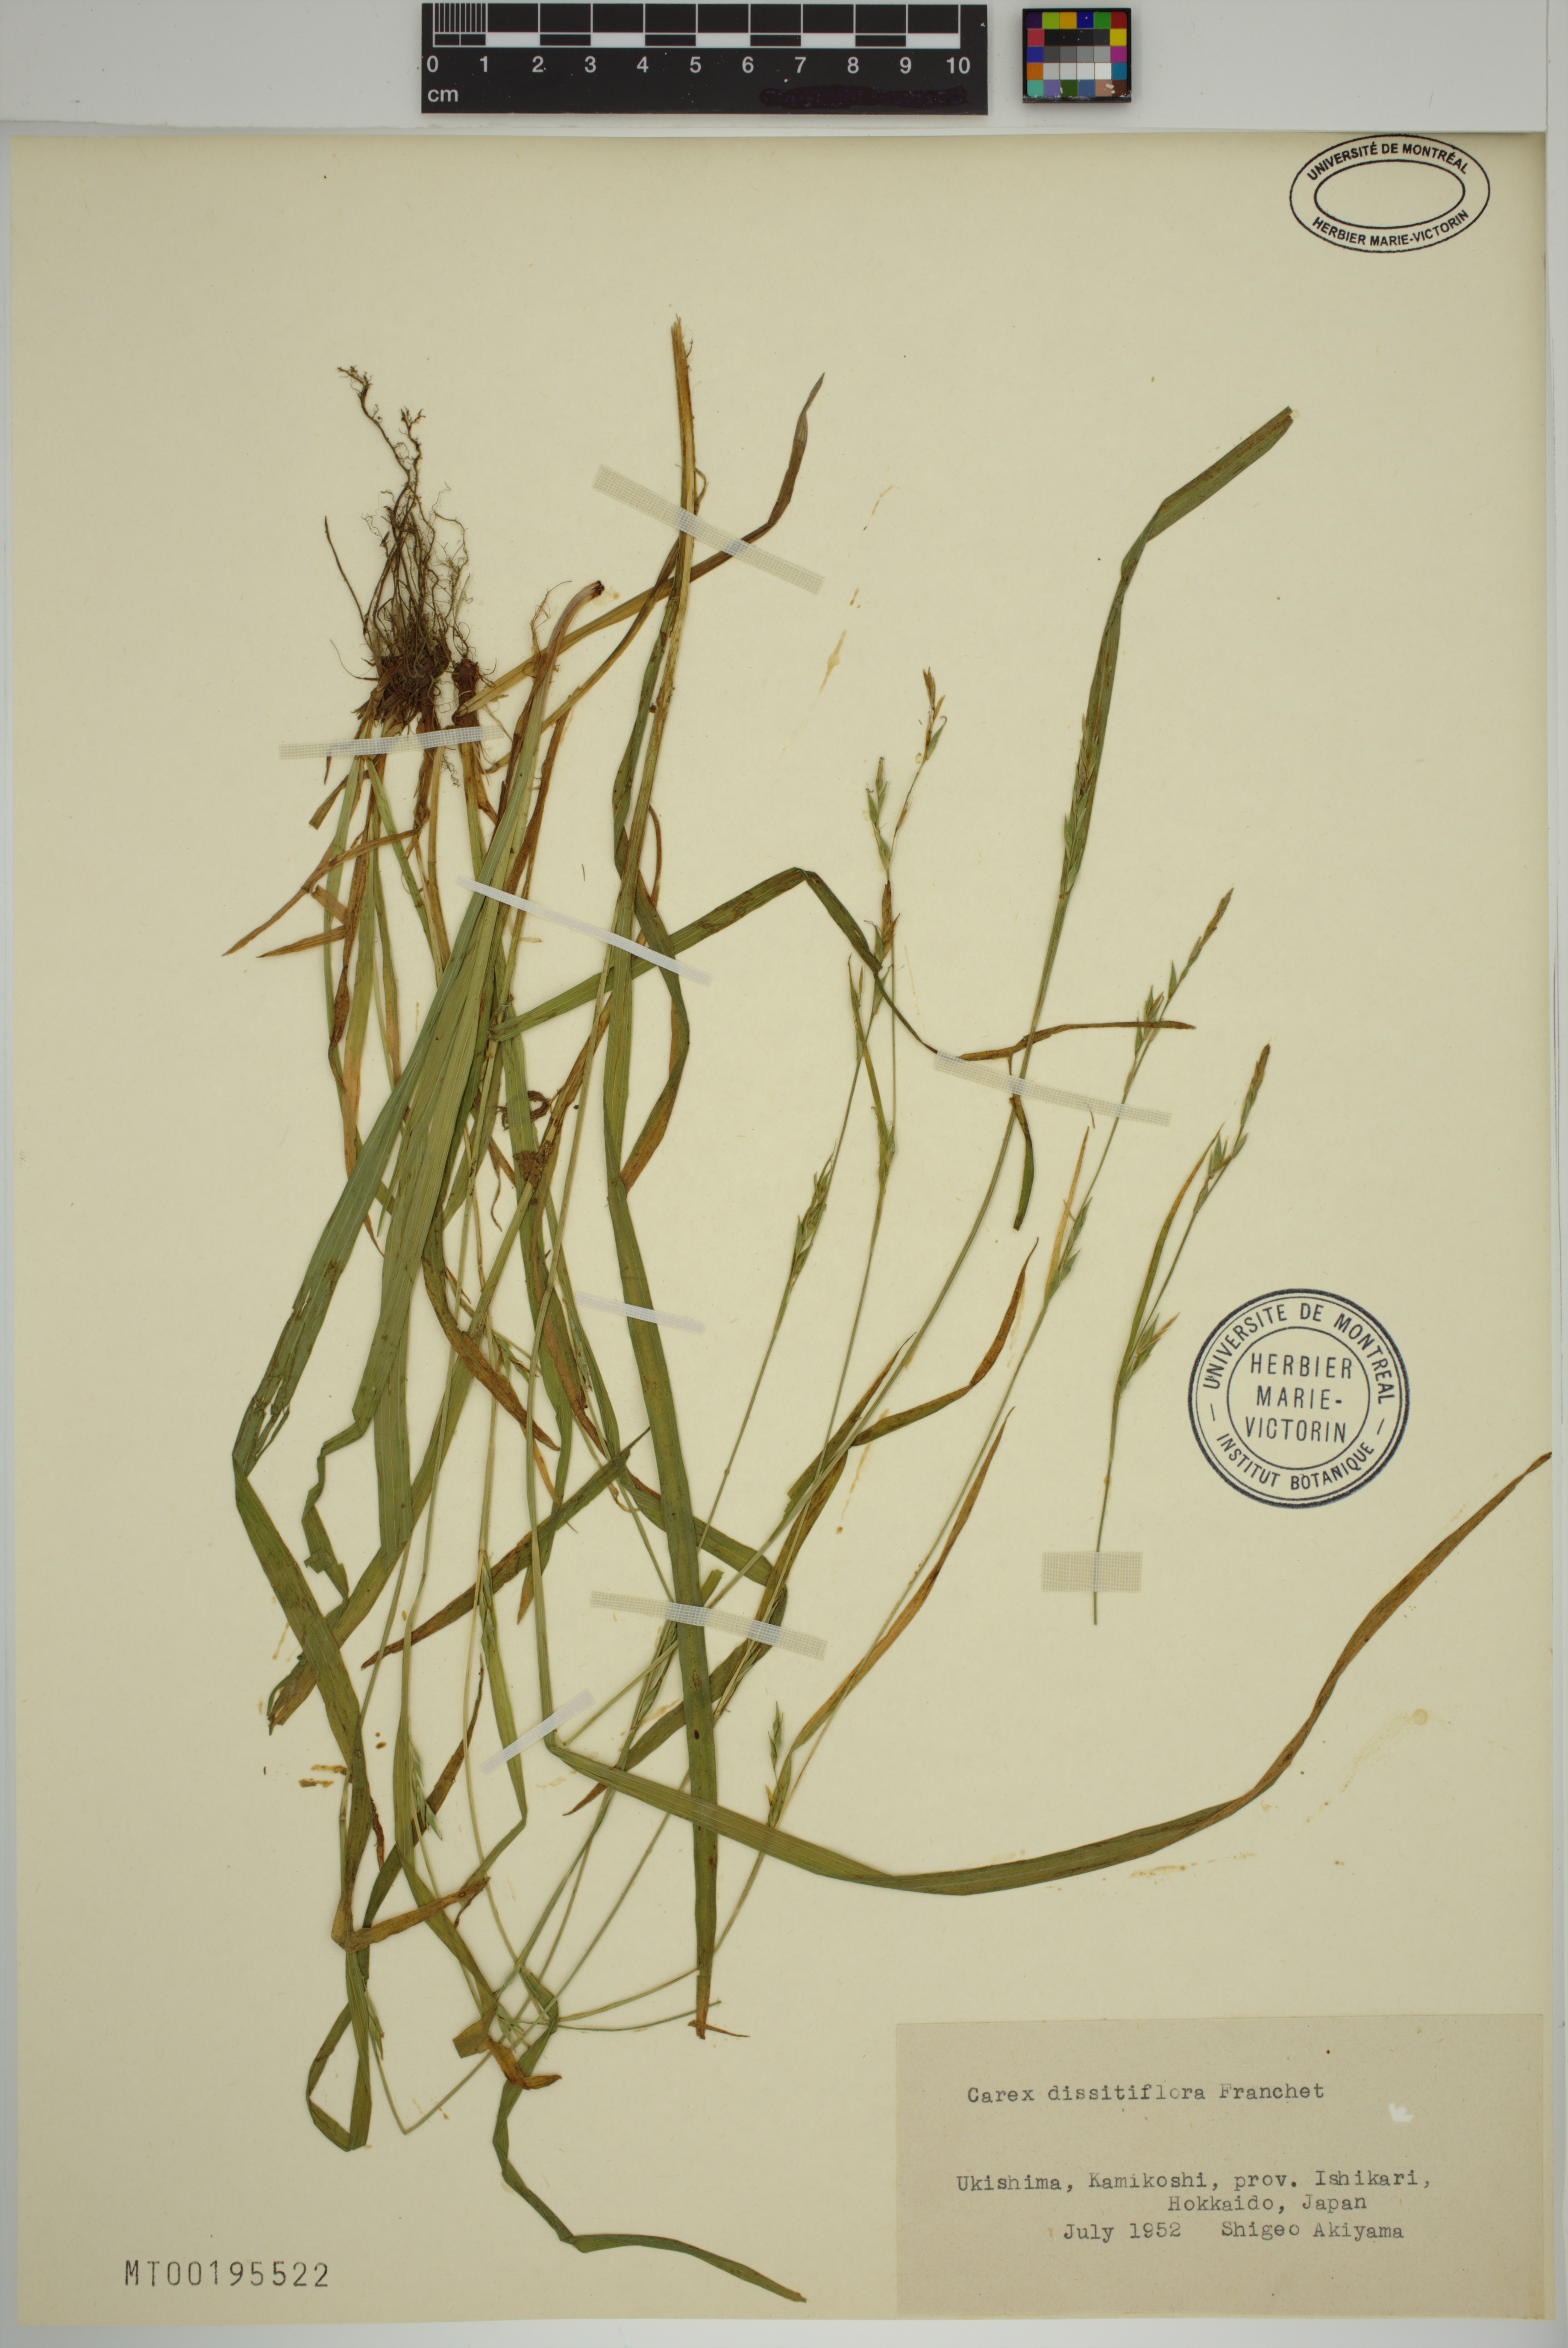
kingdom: Plantae
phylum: Tracheophyta
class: Liliopsida
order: Poales
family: Cyperaceae
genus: Carex
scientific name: Carex dissitiflora
